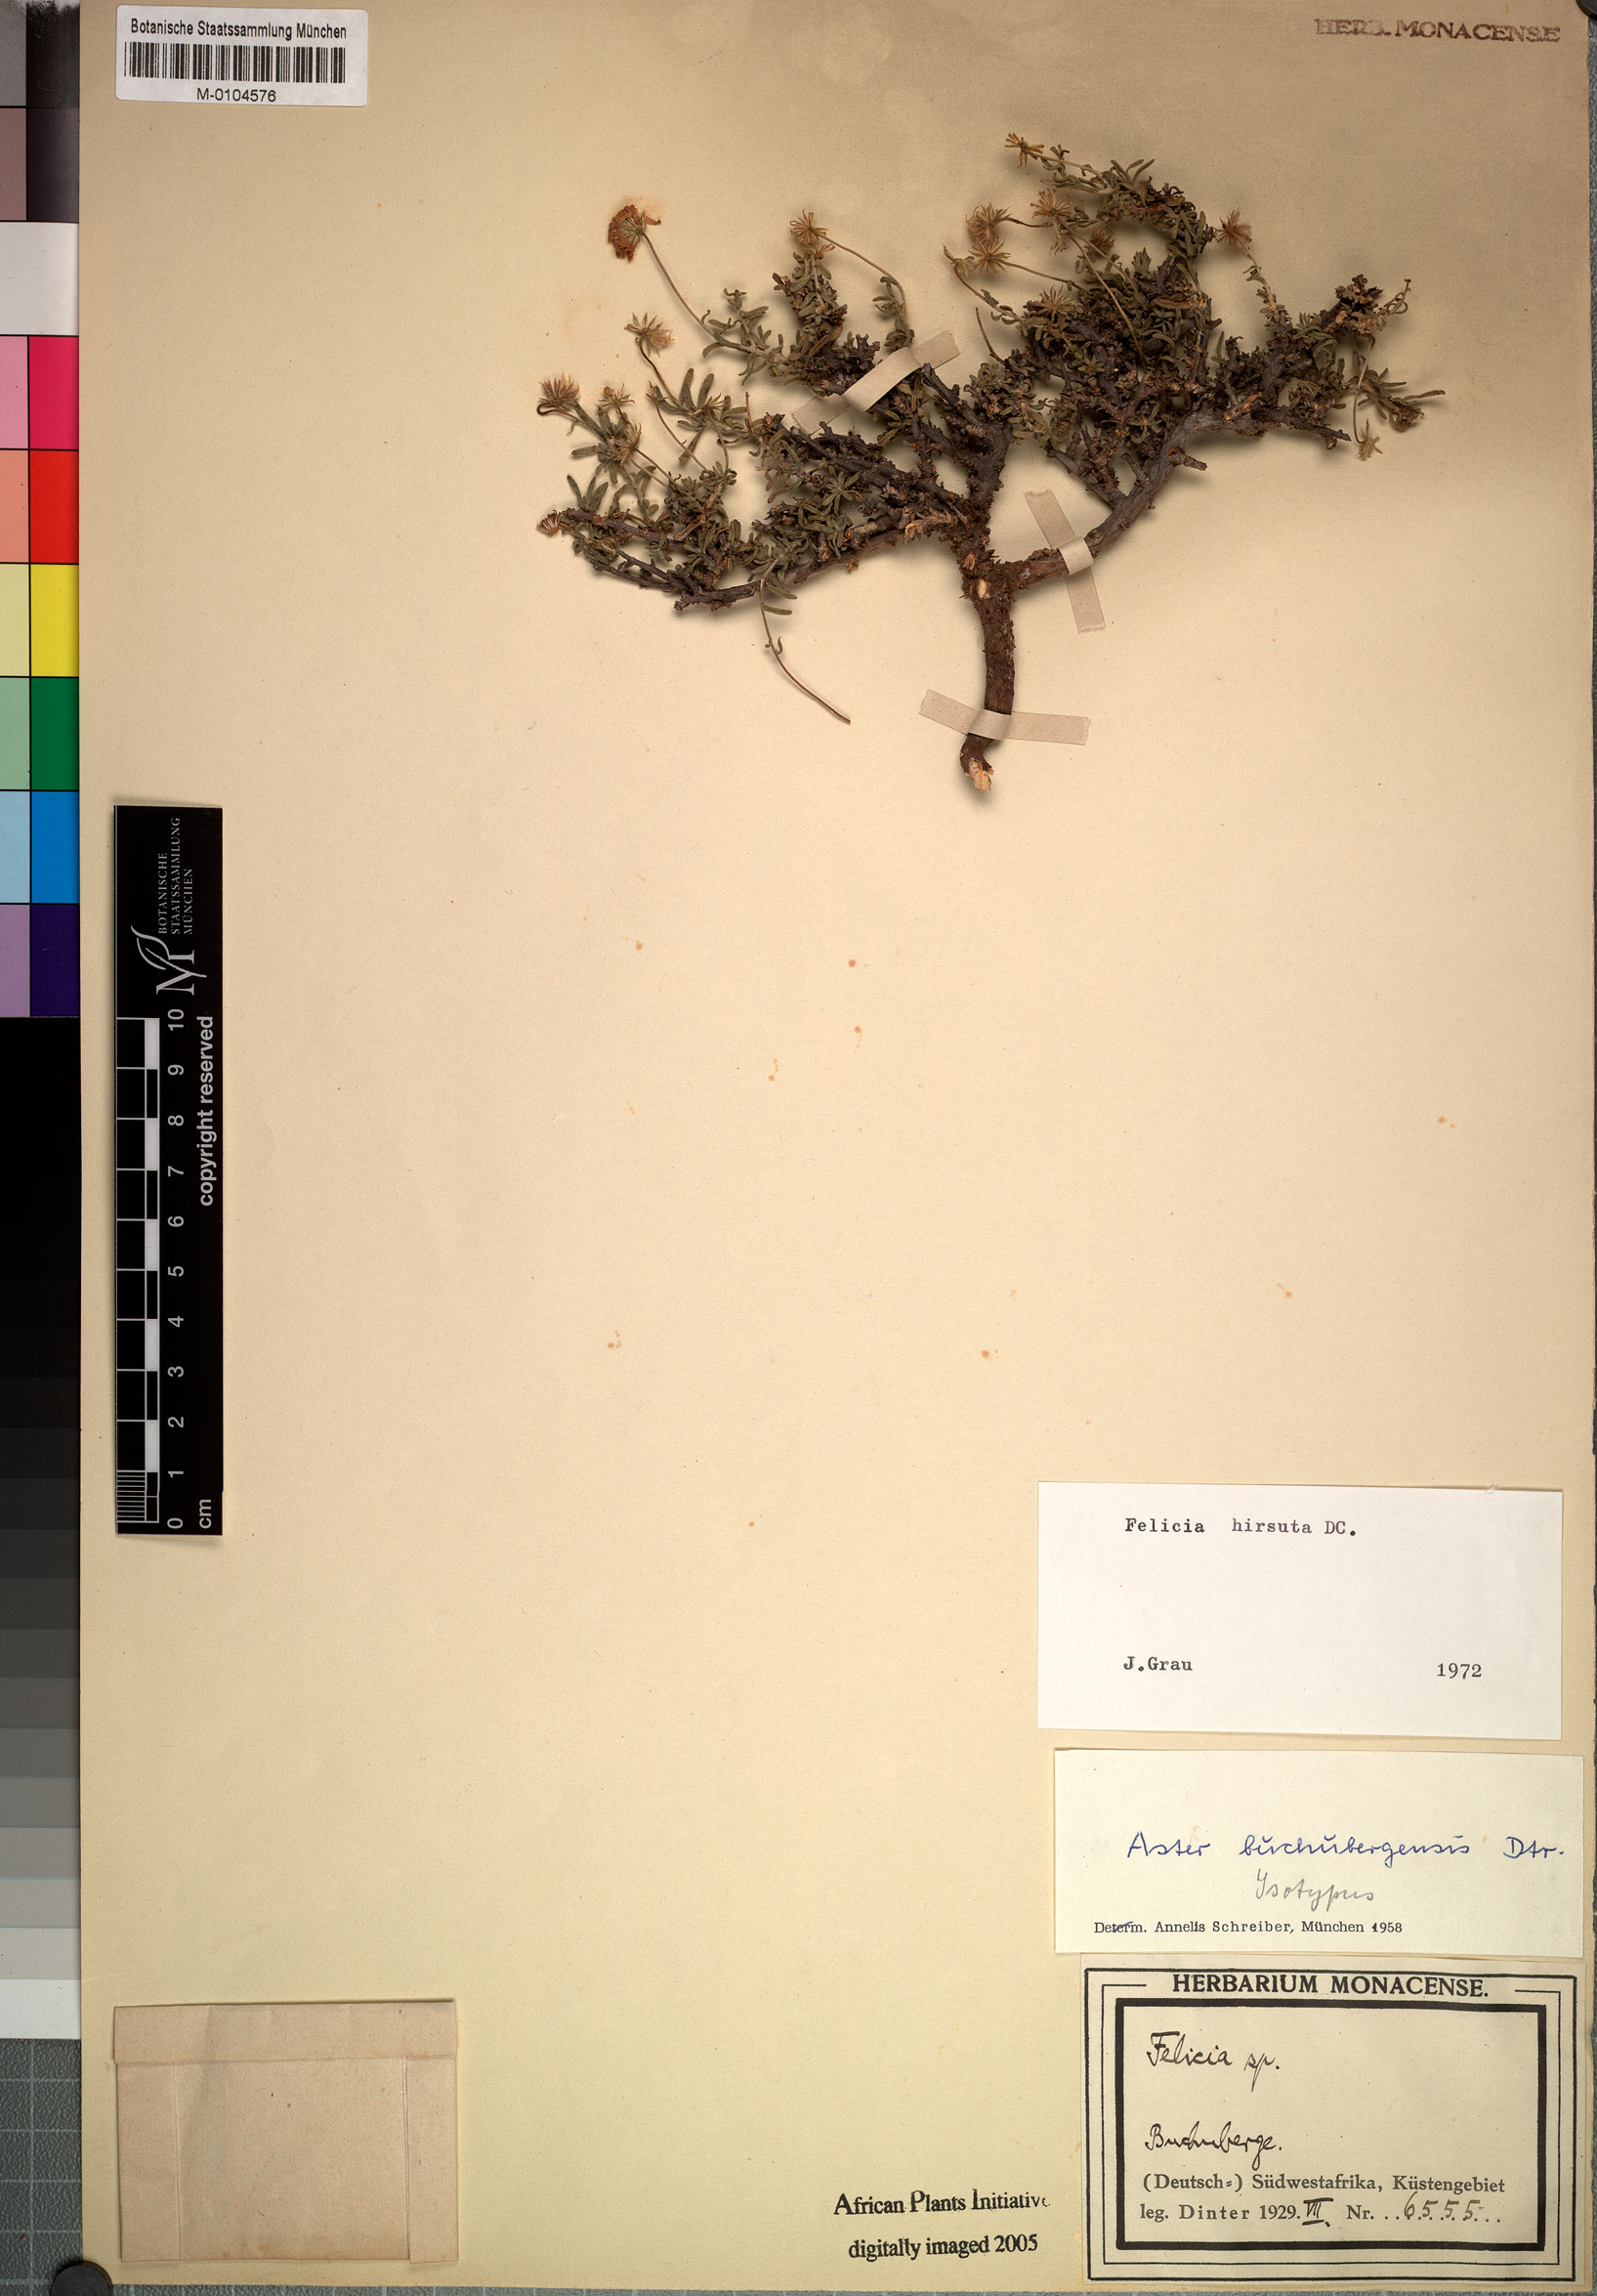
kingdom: Plantae
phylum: Tracheophyta
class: Magnoliopsida
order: Asterales
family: Asteraceae
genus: Felicia
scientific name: Felicia hirsuta
